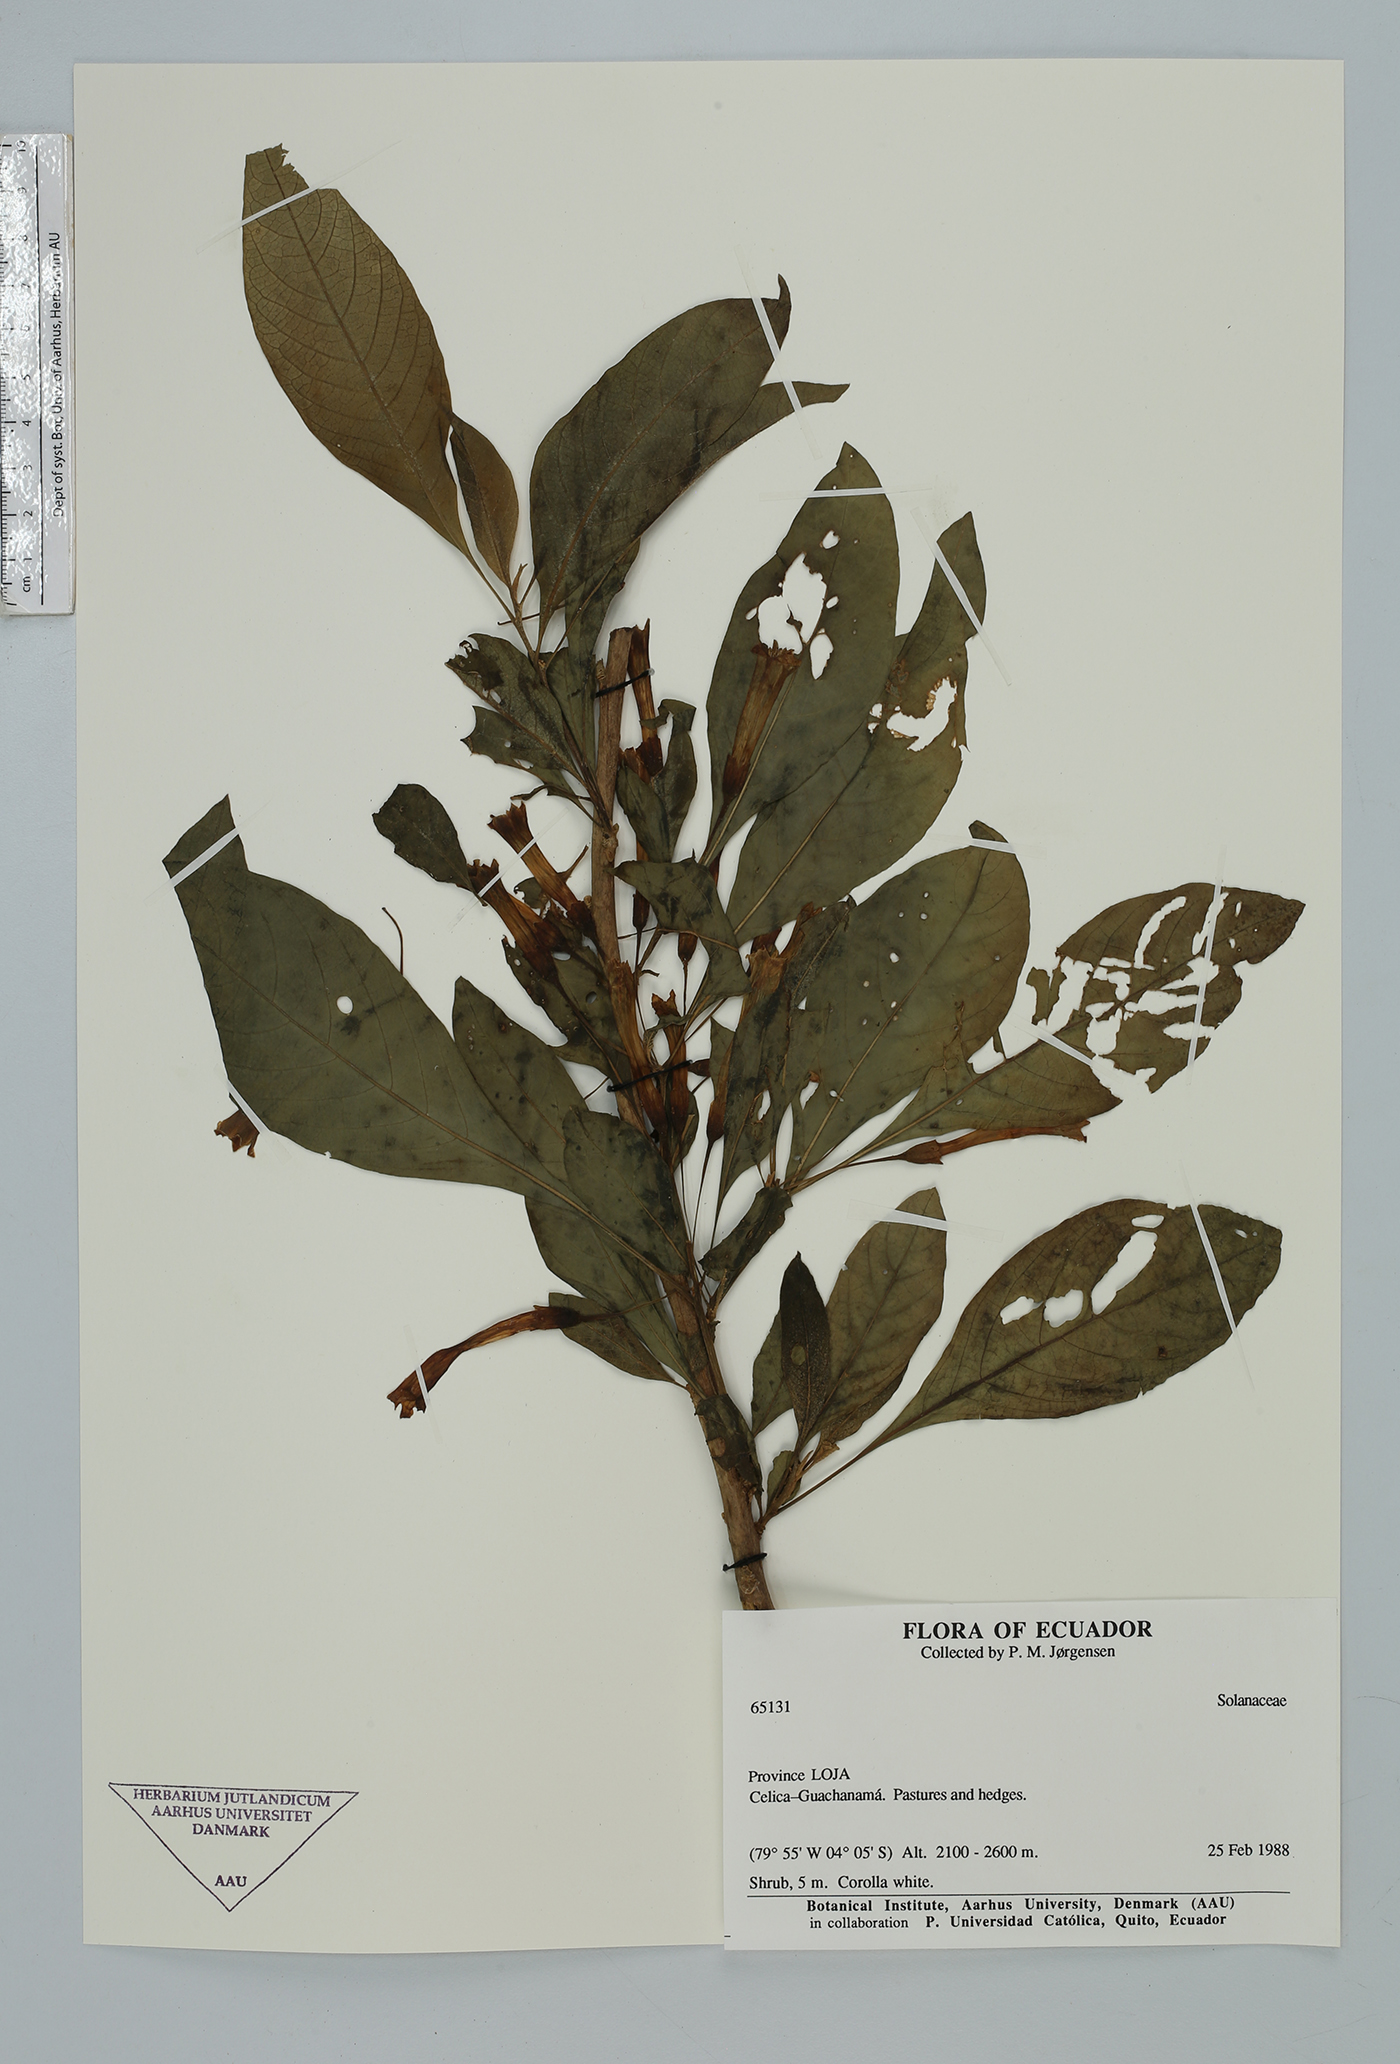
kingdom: Plantae
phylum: Tracheophyta
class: Magnoliopsida
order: Solanales
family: Solanaceae
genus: Iochroma
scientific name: Iochroma
